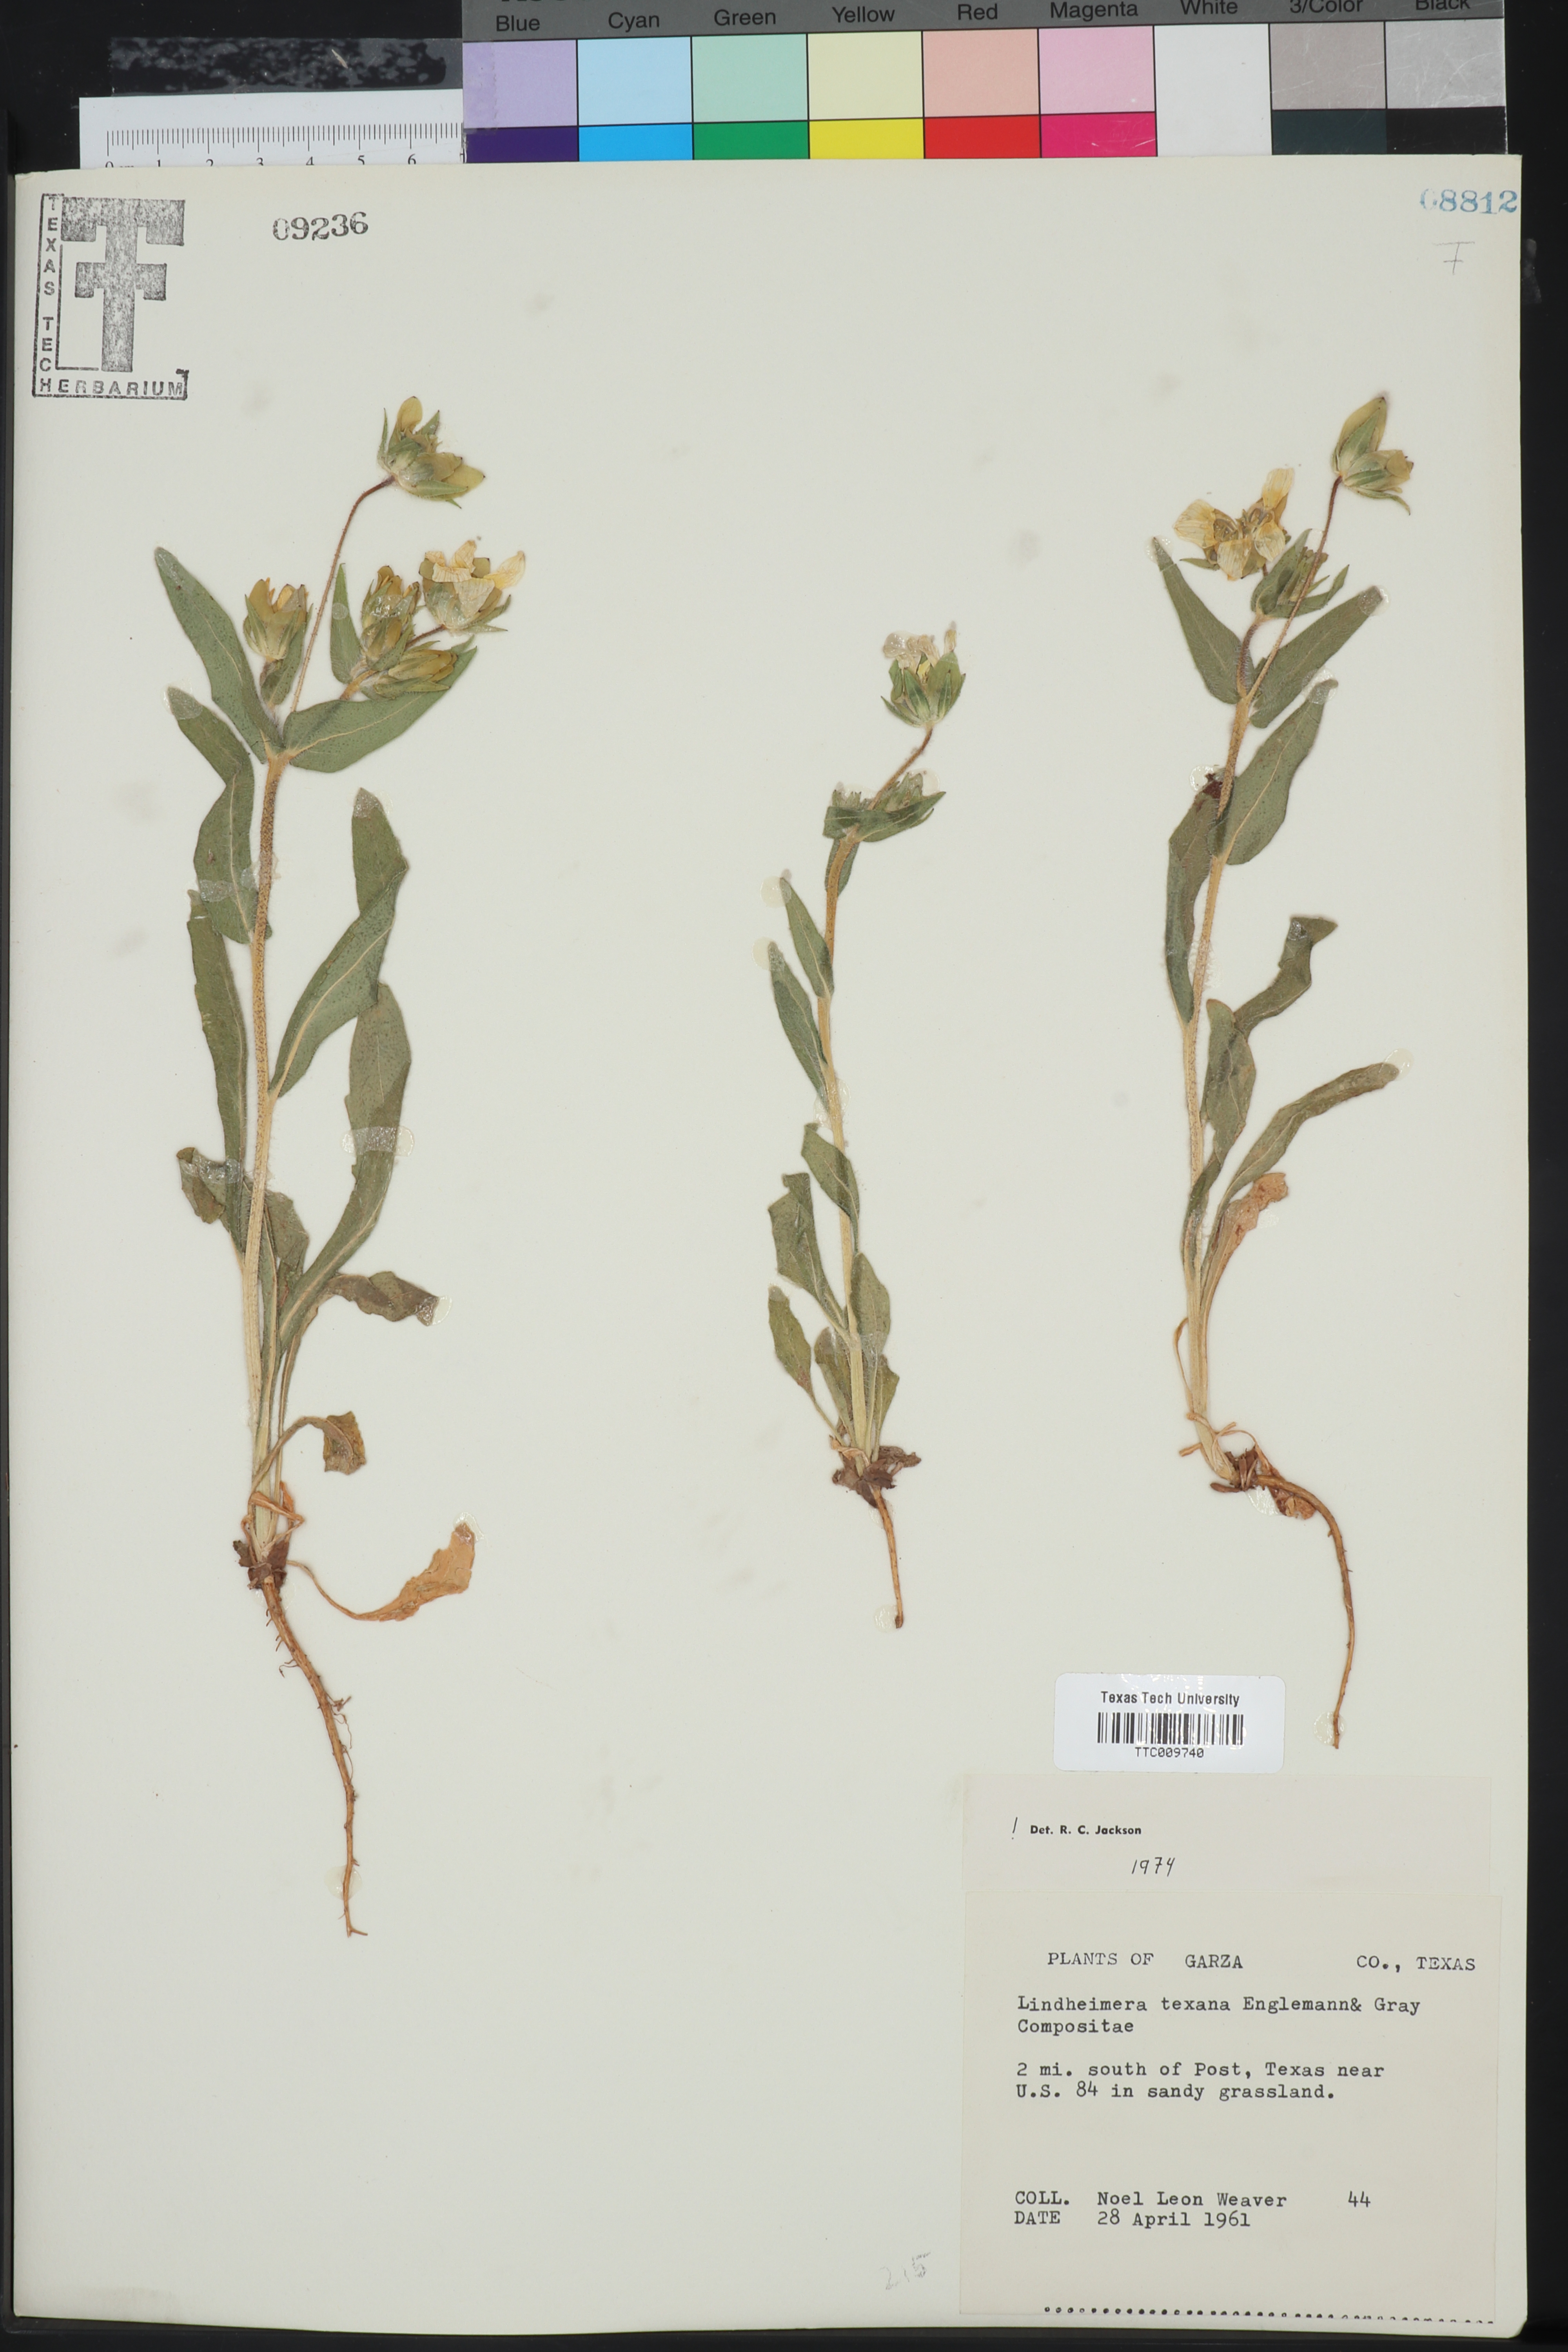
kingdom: Plantae
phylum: Tracheophyta
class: Magnoliopsida
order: Asterales
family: Asteraceae
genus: Lindheimera
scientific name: Lindheimera texana
